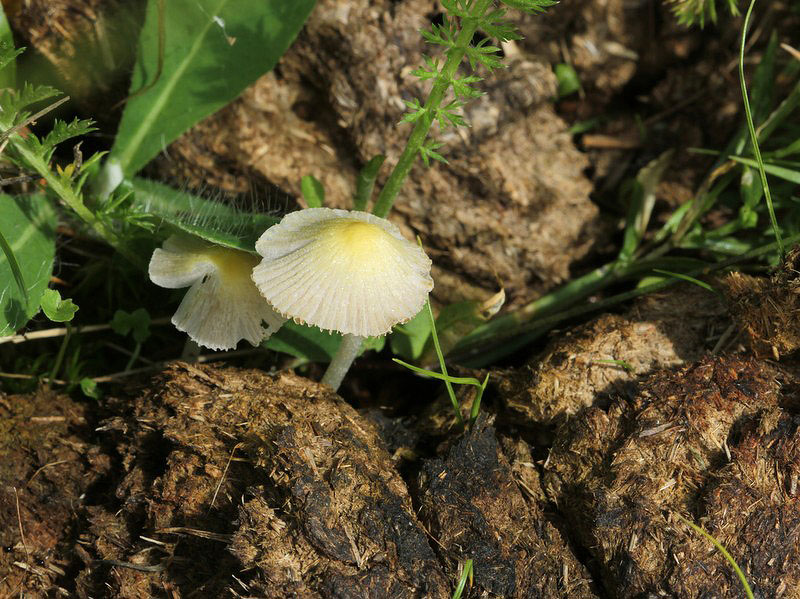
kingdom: Fungi
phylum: Basidiomycota
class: Agaricomycetes
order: Agaricales
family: Bolbitiaceae
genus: Bolbitius
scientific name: Bolbitius titubans
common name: almindelig gulhat
